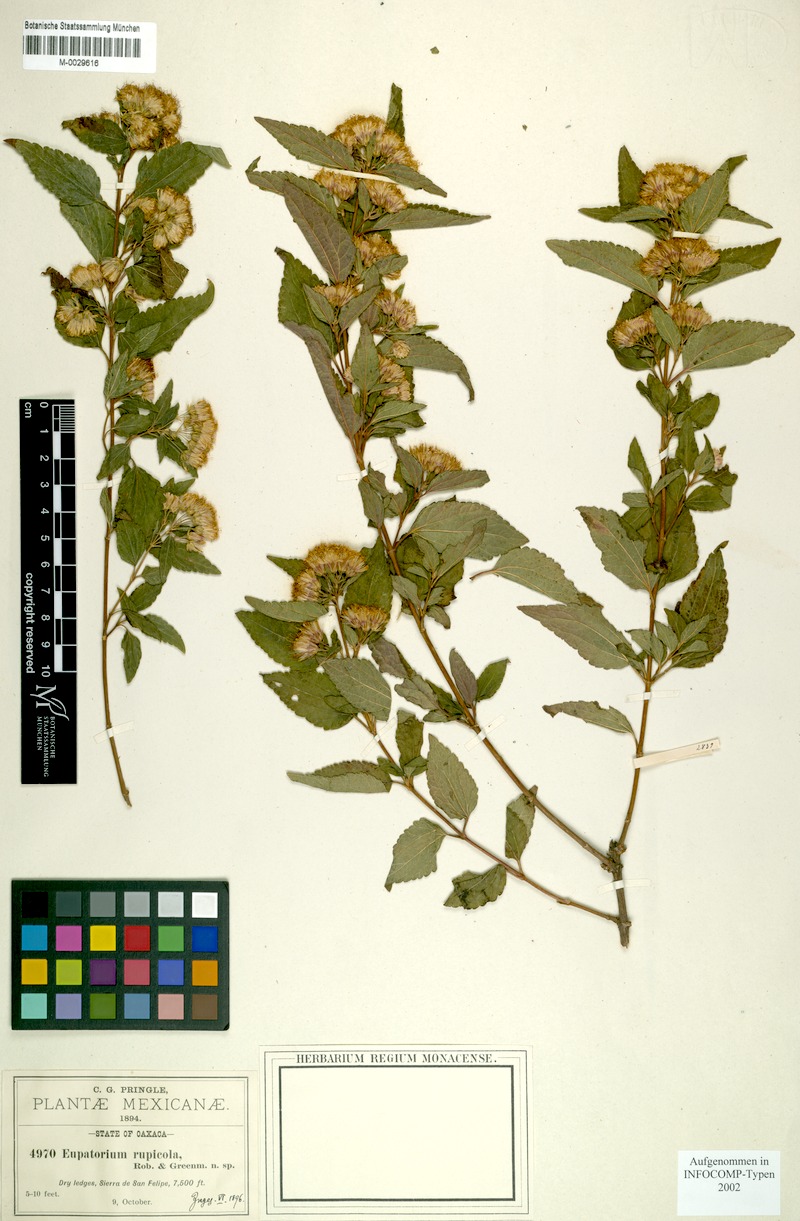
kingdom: Plantae
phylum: Tracheophyta
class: Magnoliopsida
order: Asterales
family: Asteraceae
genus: Ageratina
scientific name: Ageratina rupicola
